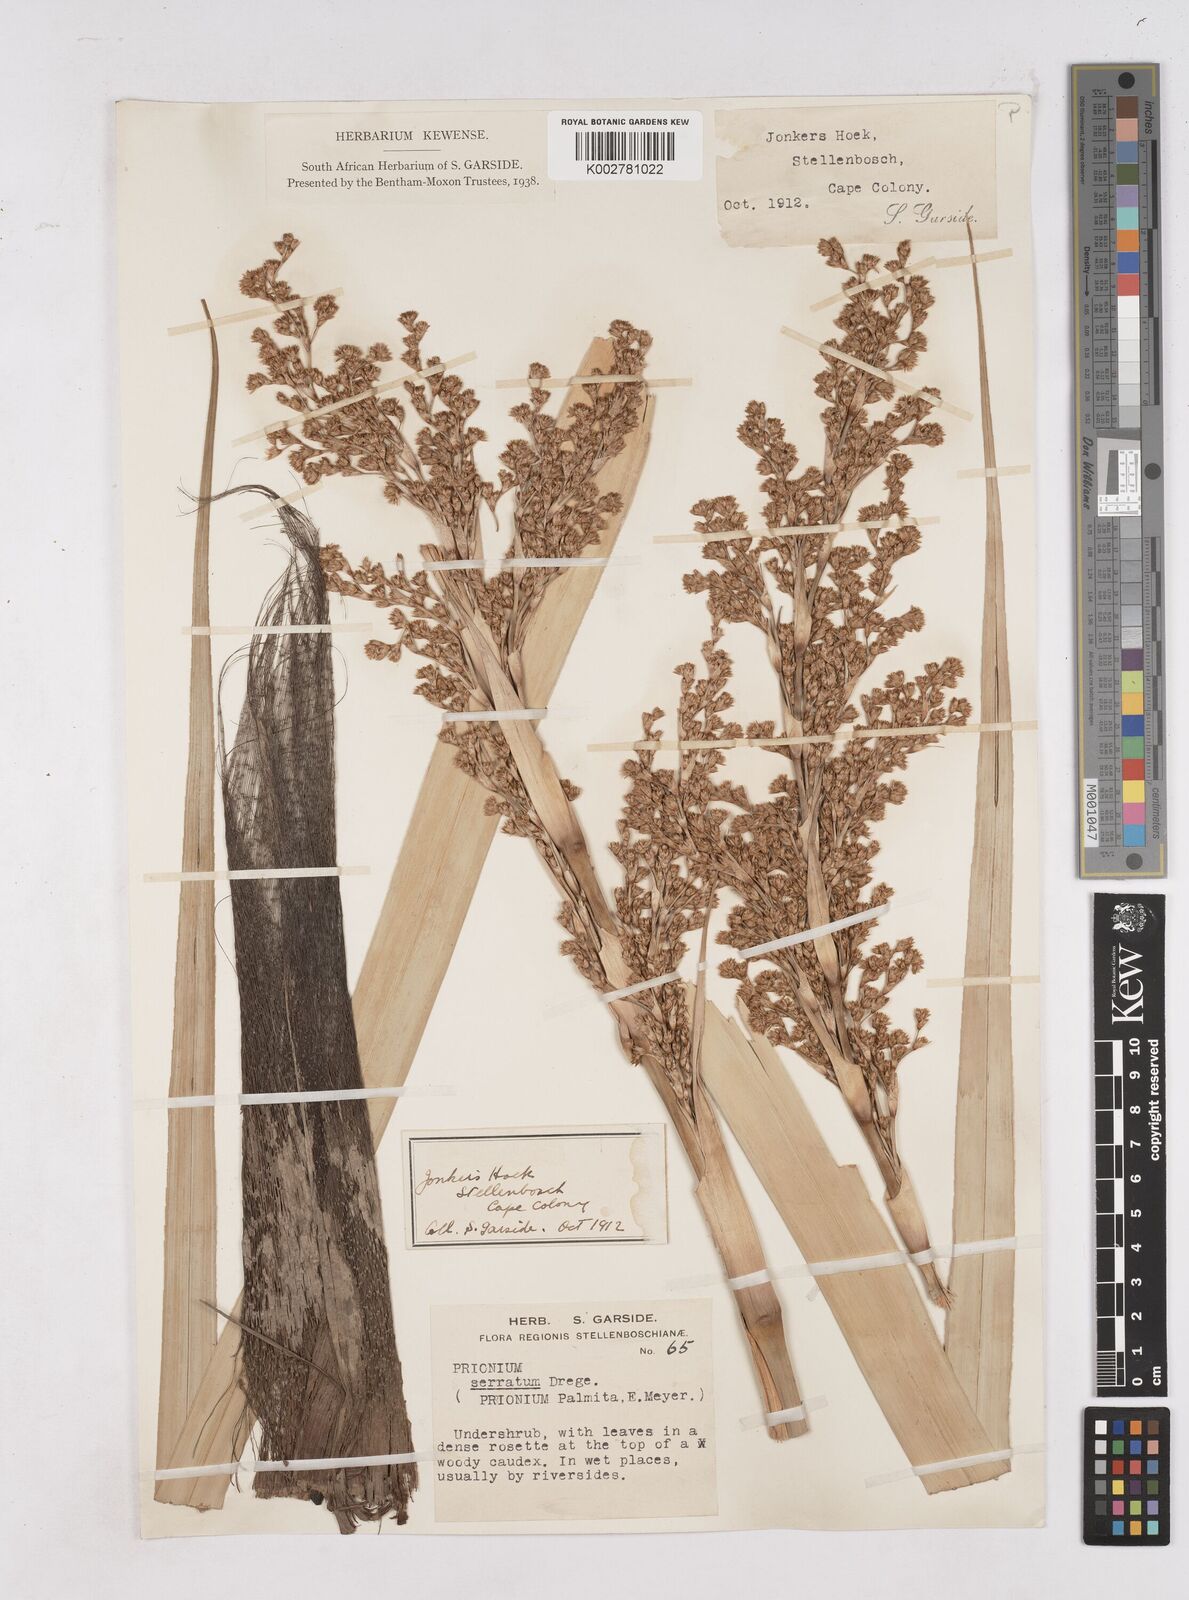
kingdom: Plantae
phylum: Tracheophyta
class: Liliopsida
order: Poales
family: Thurniaceae
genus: Prionium
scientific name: Prionium serratum
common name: Palmiet
